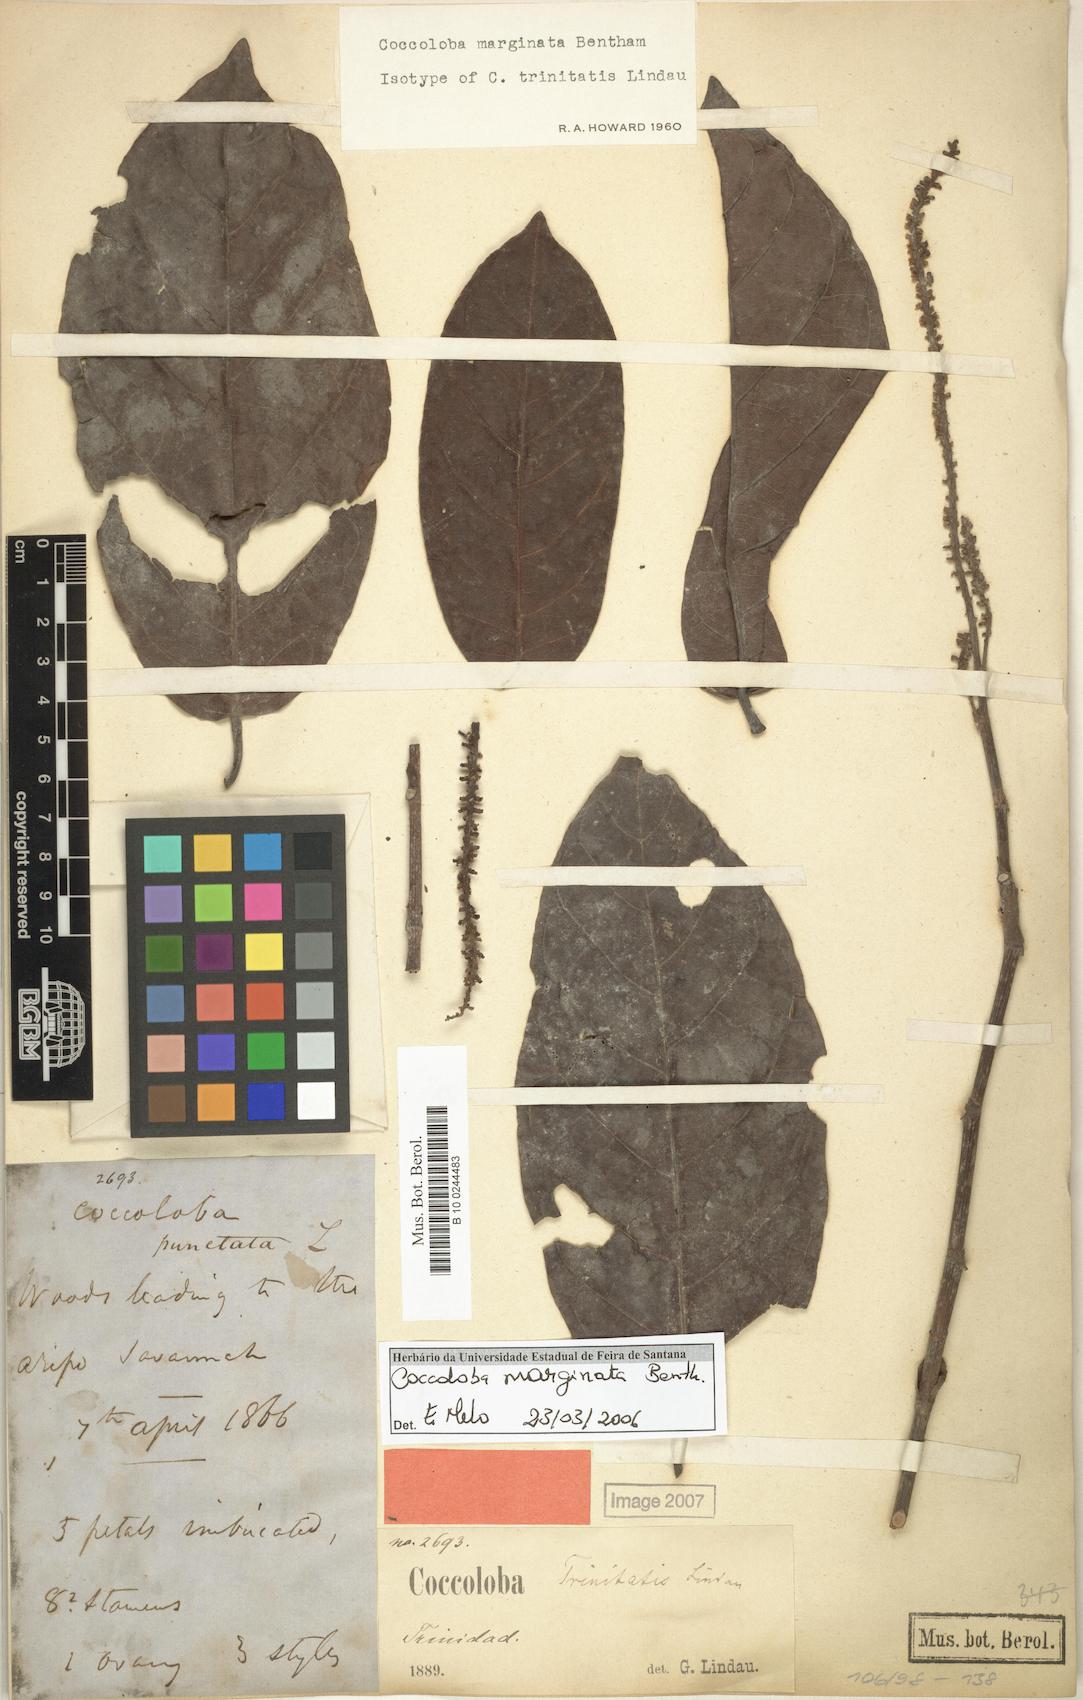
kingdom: Plantae
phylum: Tracheophyta
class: Magnoliopsida
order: Caryophyllales
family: Polygonaceae
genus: Coccoloba
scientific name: Coccoloba nitida
